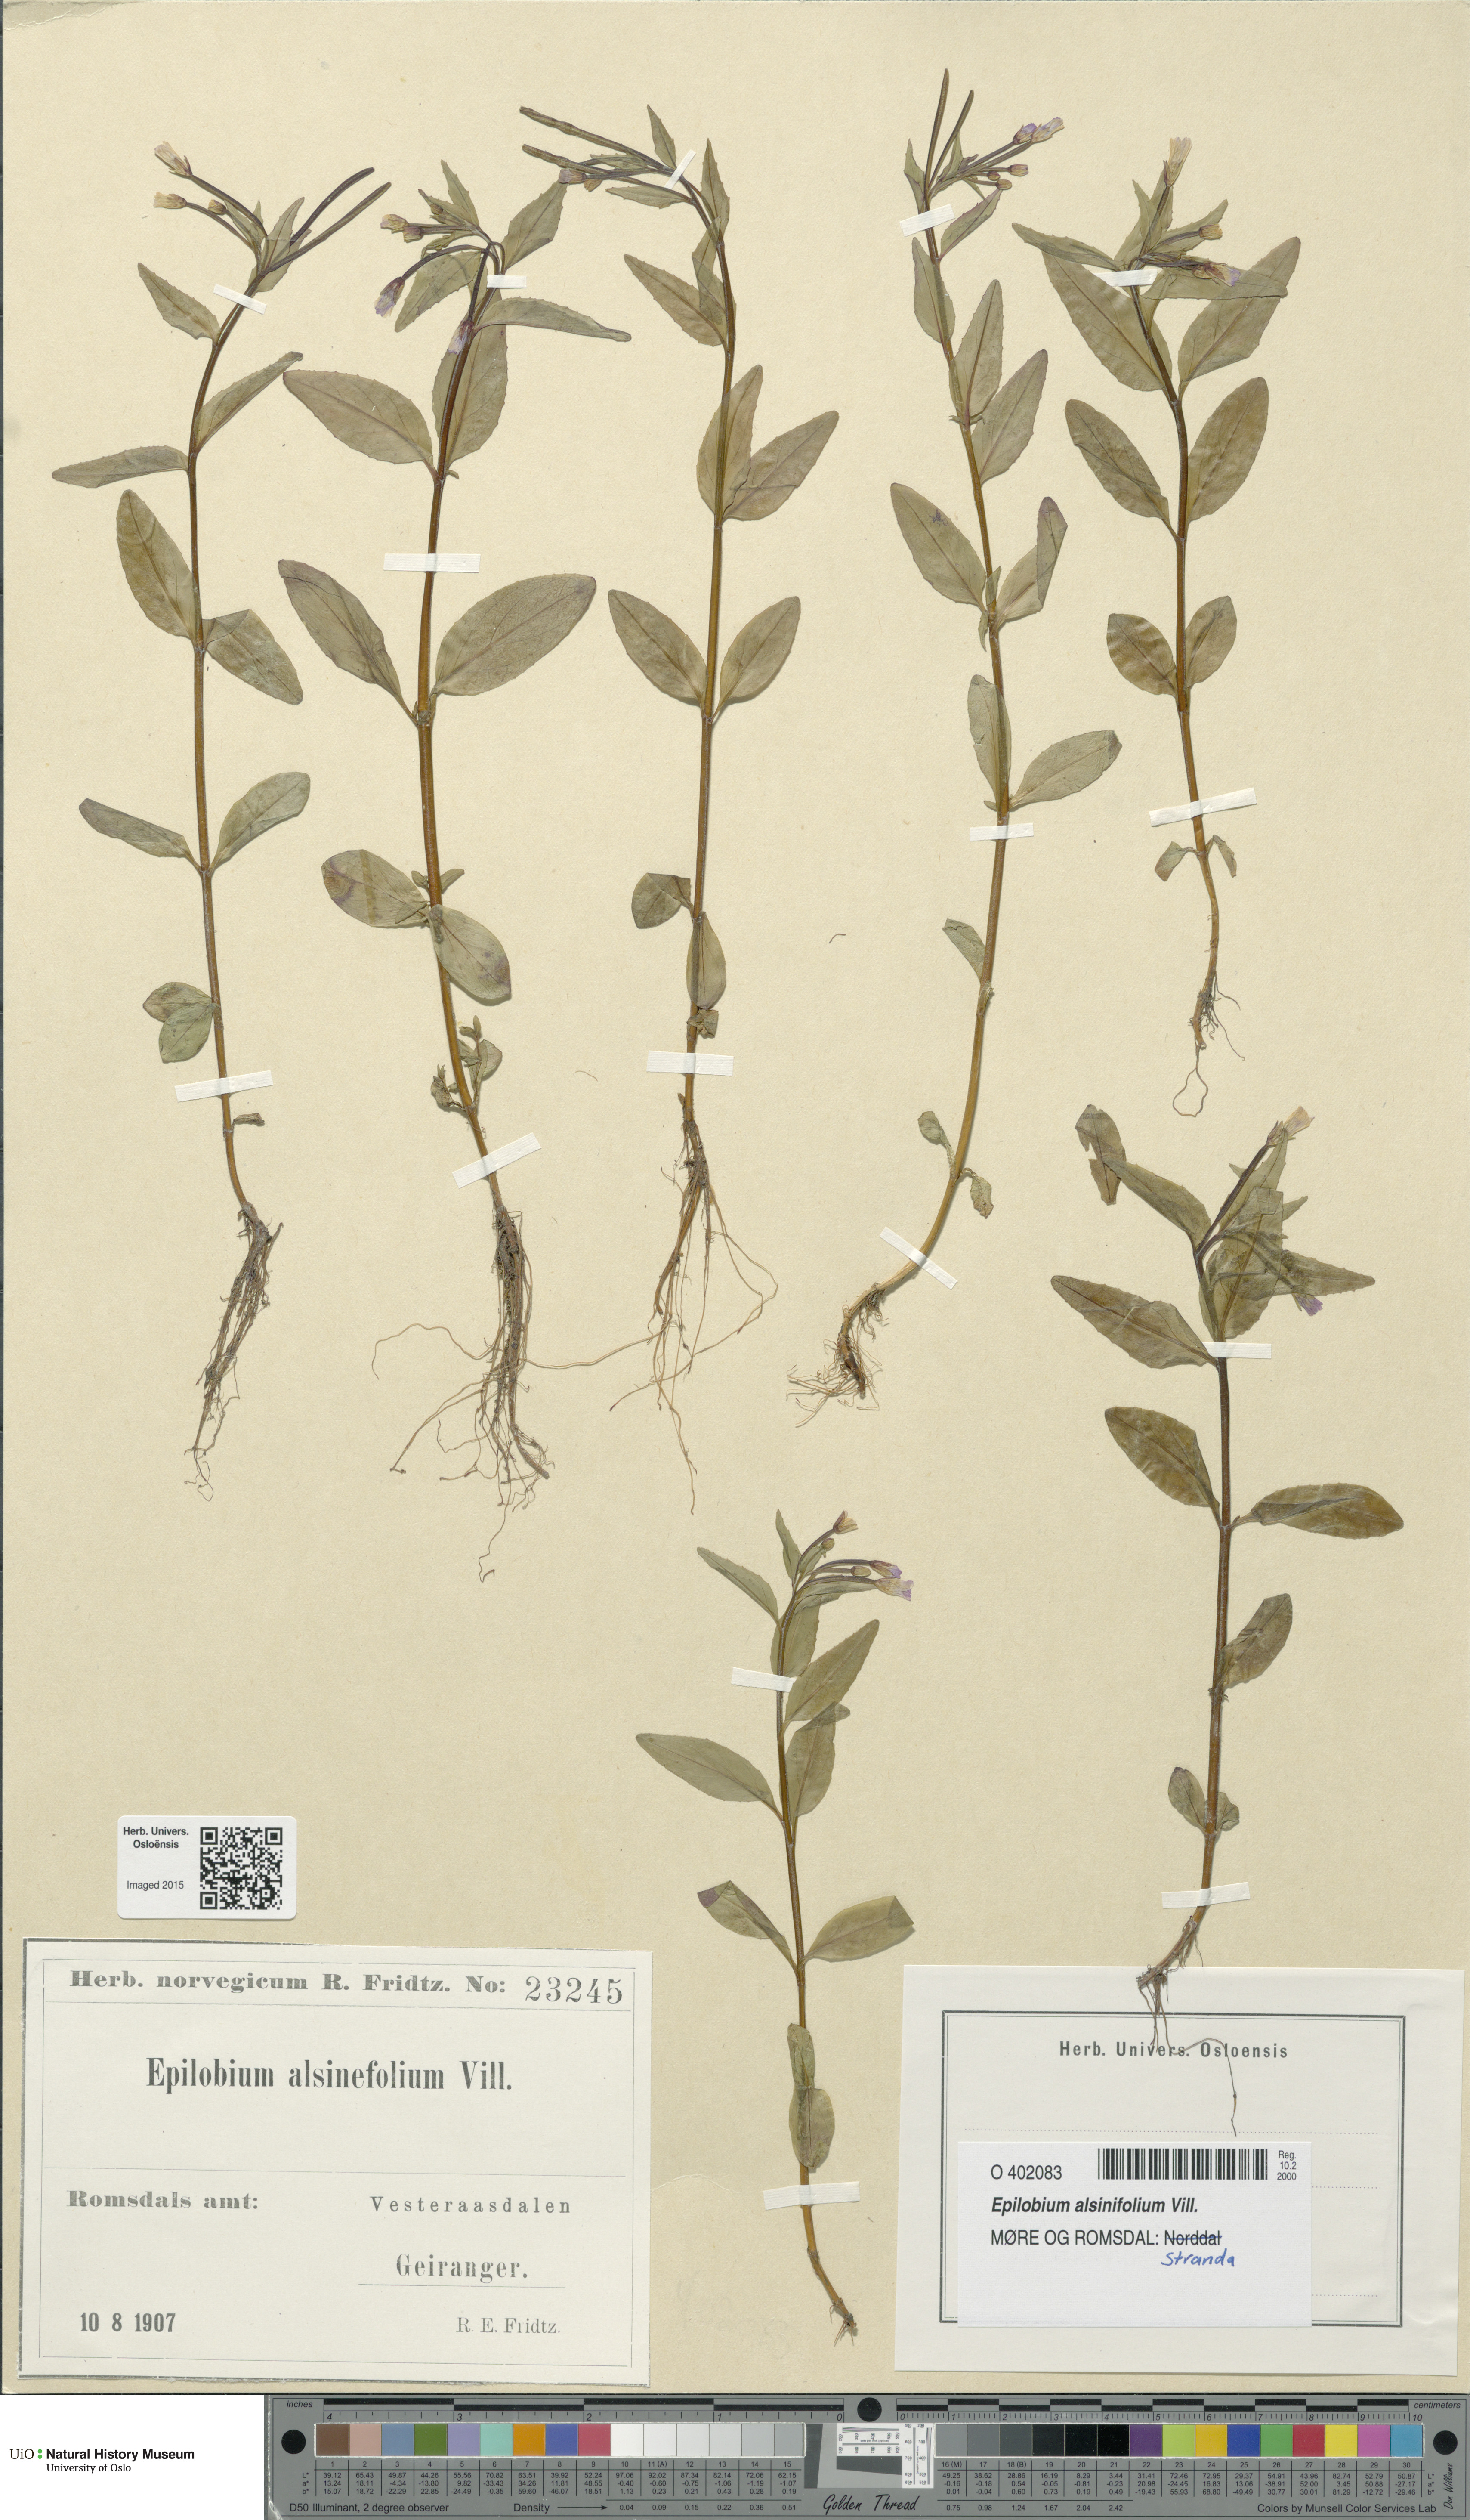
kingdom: Plantae
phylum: Tracheophyta
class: Magnoliopsida
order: Myrtales
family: Onagraceae
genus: Epilobium
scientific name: Epilobium alsinifolium
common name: Chickweed willowherb
